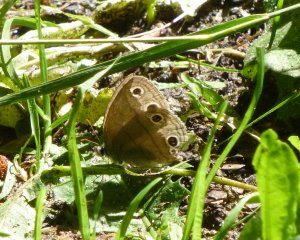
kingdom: Animalia
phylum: Arthropoda
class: Insecta
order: Lepidoptera
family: Nymphalidae
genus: Euptychia
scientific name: Euptychia cymela
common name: Little Wood Satyr
